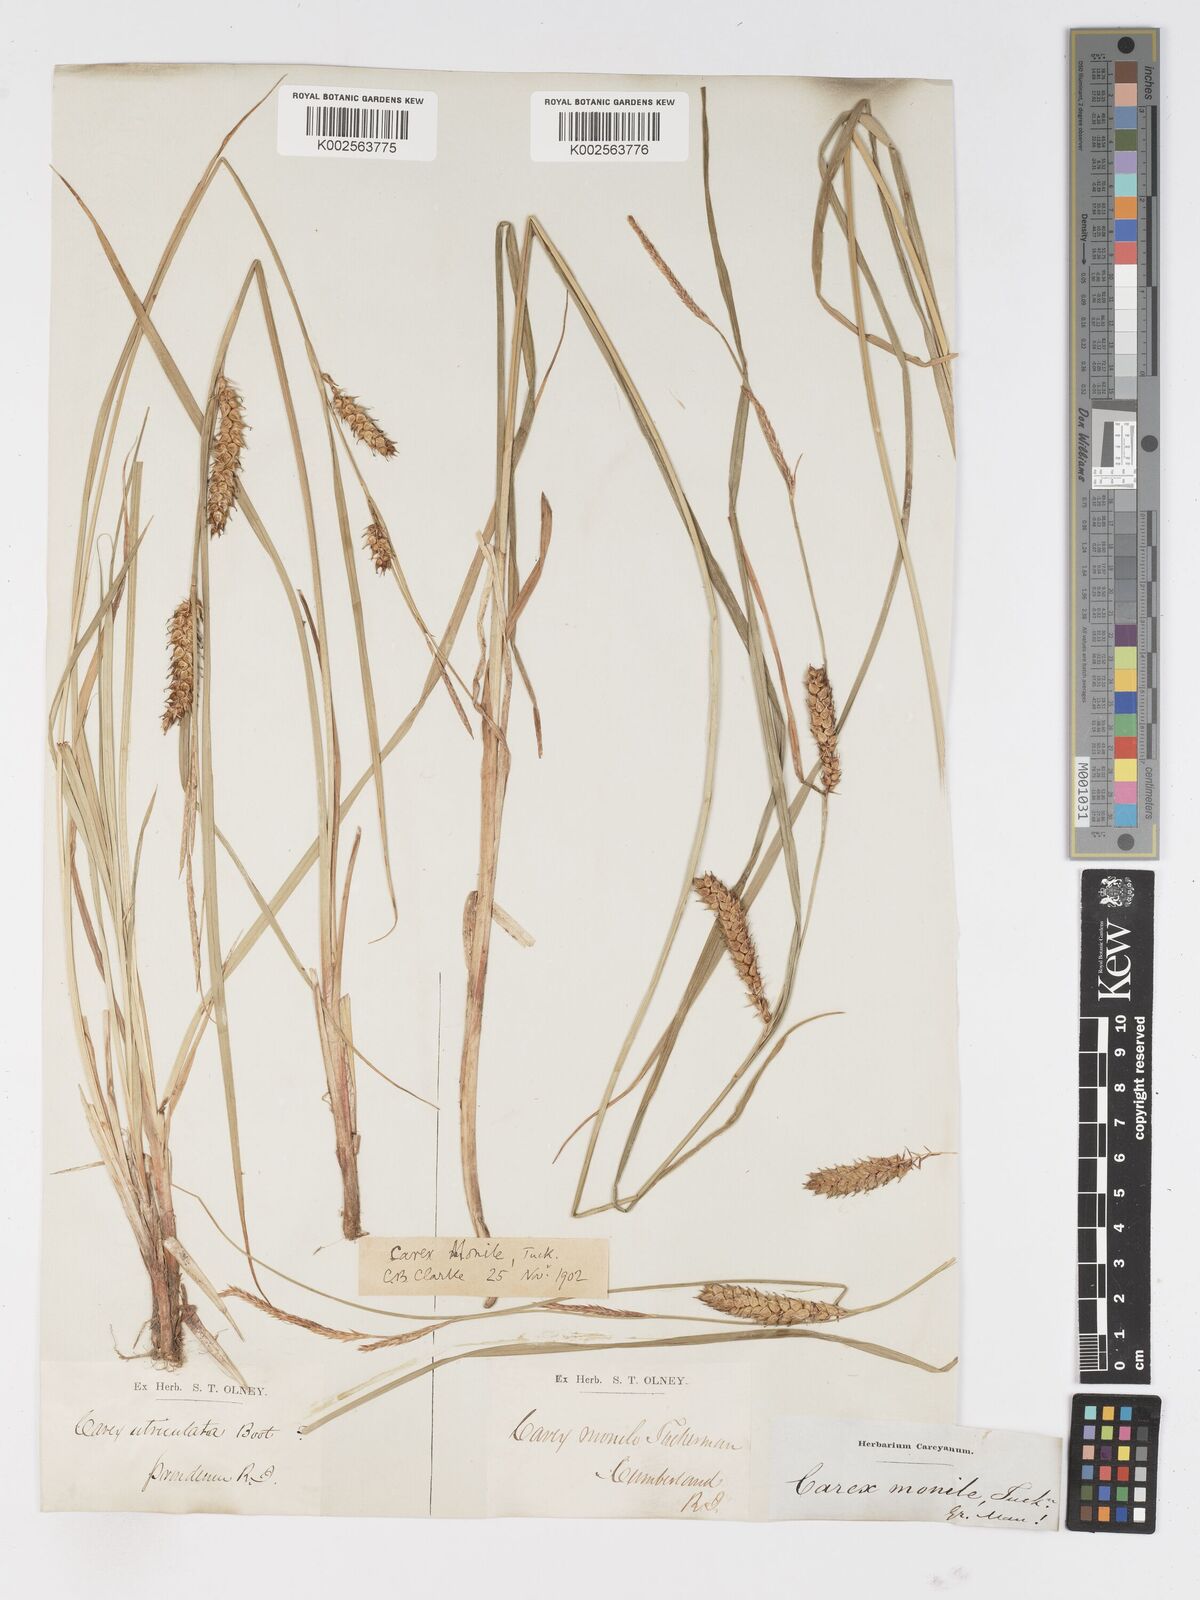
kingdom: Plantae
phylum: Tracheophyta
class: Liliopsida
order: Poales
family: Cyperaceae
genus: Carex
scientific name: Carex vesicaria
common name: Bladder-sedge
